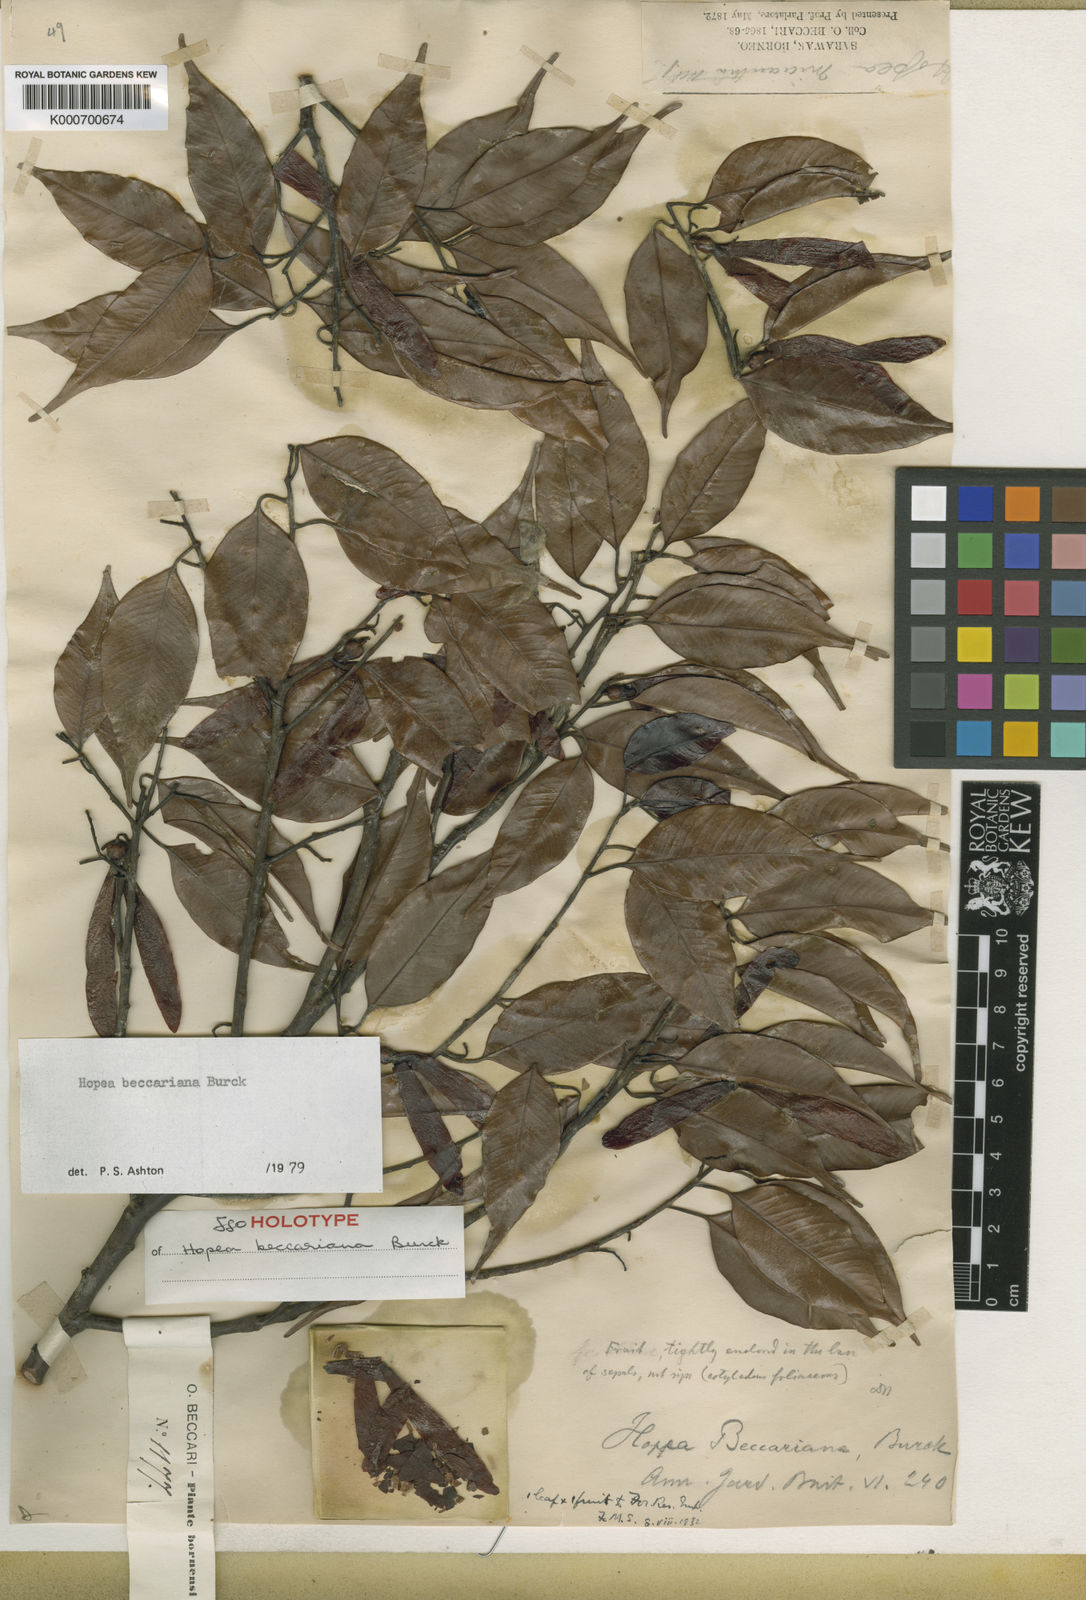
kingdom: Plantae
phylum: Tracheophyta
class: Magnoliopsida
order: Malvales
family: Dipterocarpaceae
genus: Hopea
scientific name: Hopea beccariana
